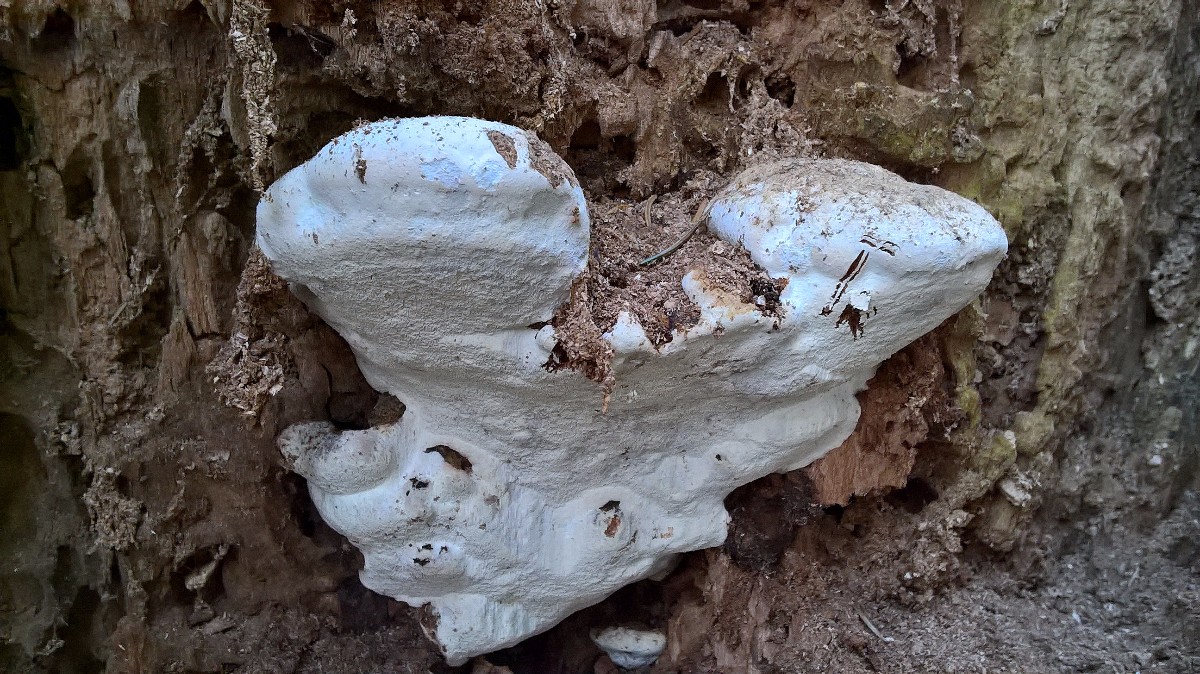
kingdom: Fungi
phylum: Basidiomycota
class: Agaricomycetes
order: Polyporales
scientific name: Polyporales
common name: poresvampordenen
